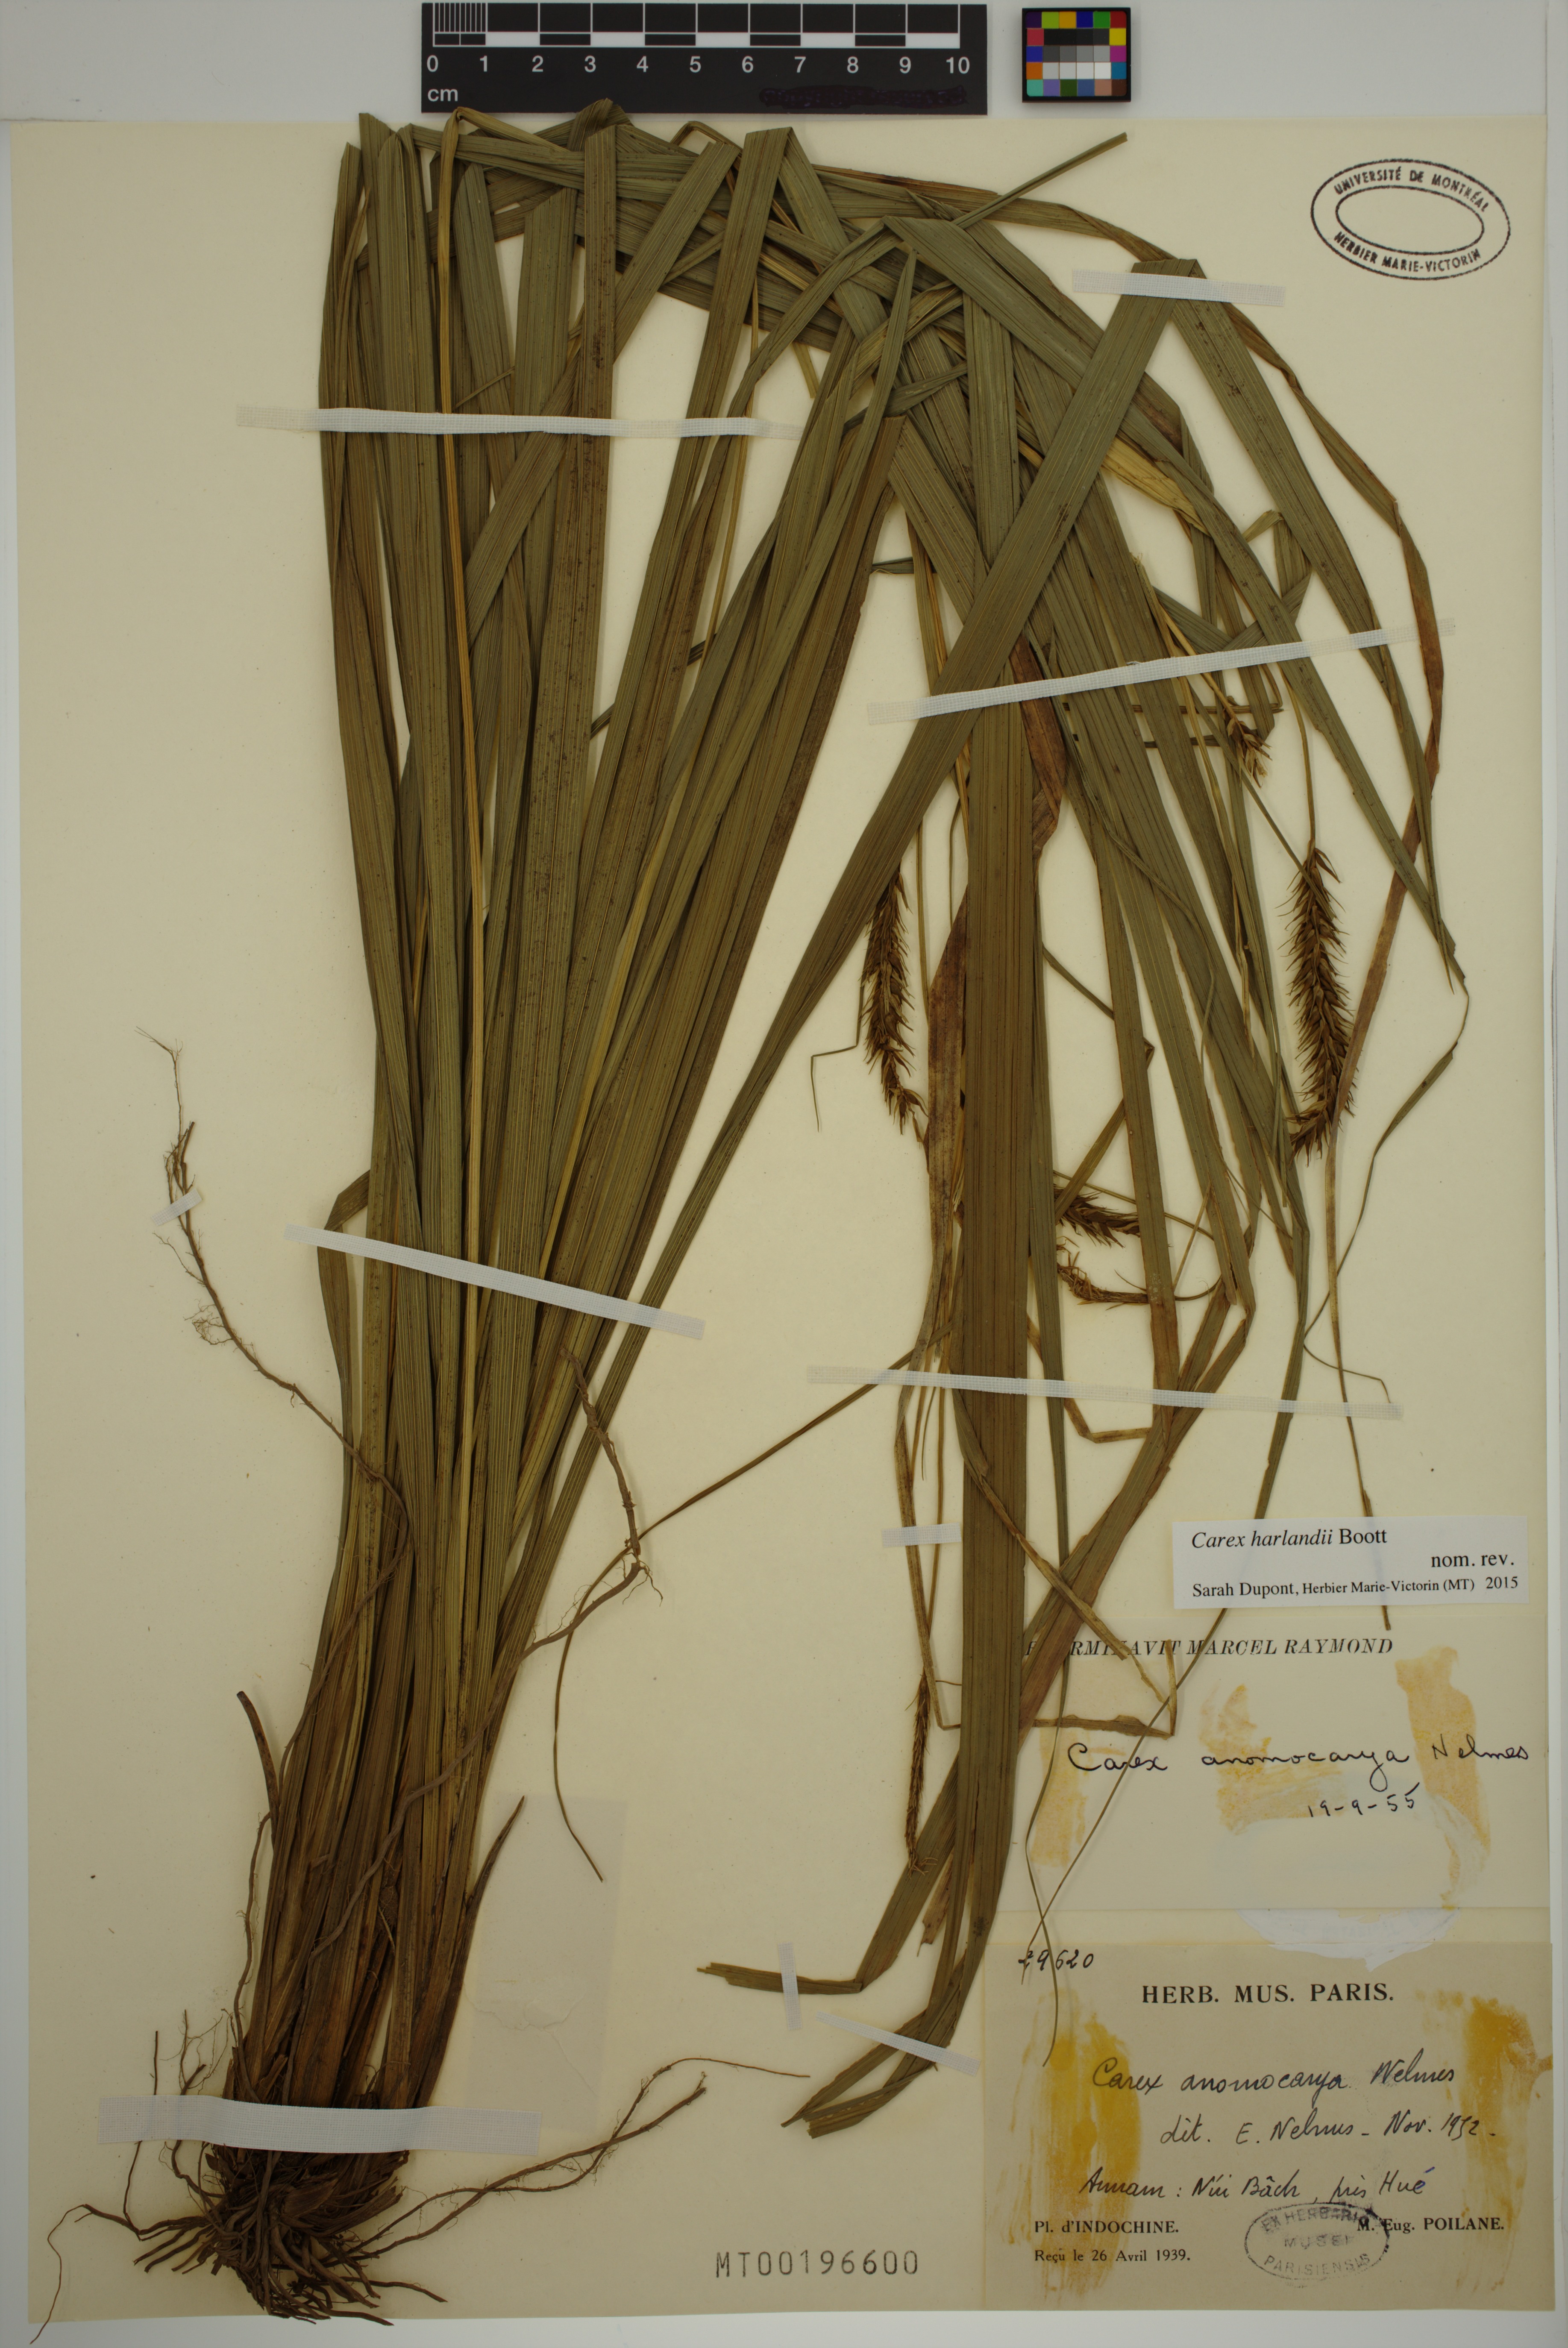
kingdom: Plantae
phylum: Tracheophyta
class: Liliopsida
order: Poales
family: Cyperaceae
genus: Carex
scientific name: Carex harlandii
